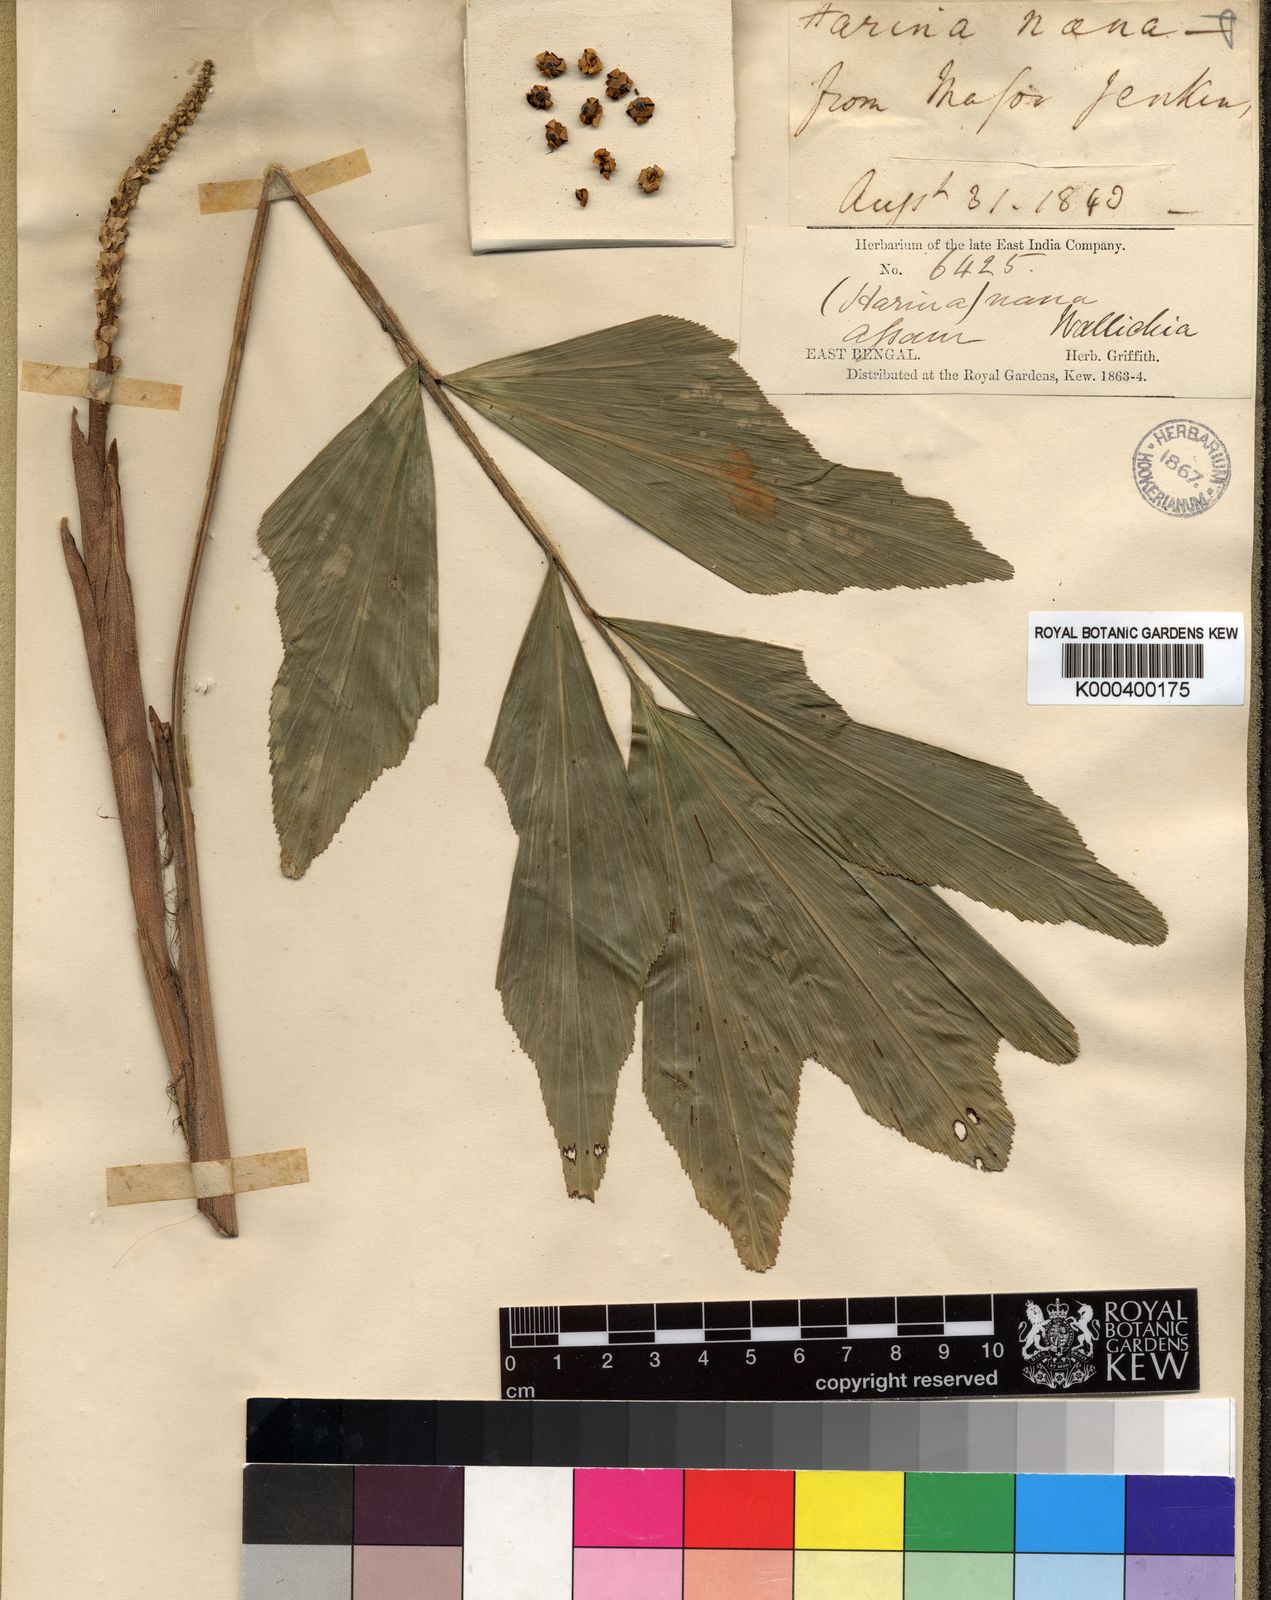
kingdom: Plantae
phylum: Tracheophyta
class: Liliopsida
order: Arecales
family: Arecaceae
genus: Wallichia
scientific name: Wallichia nana
